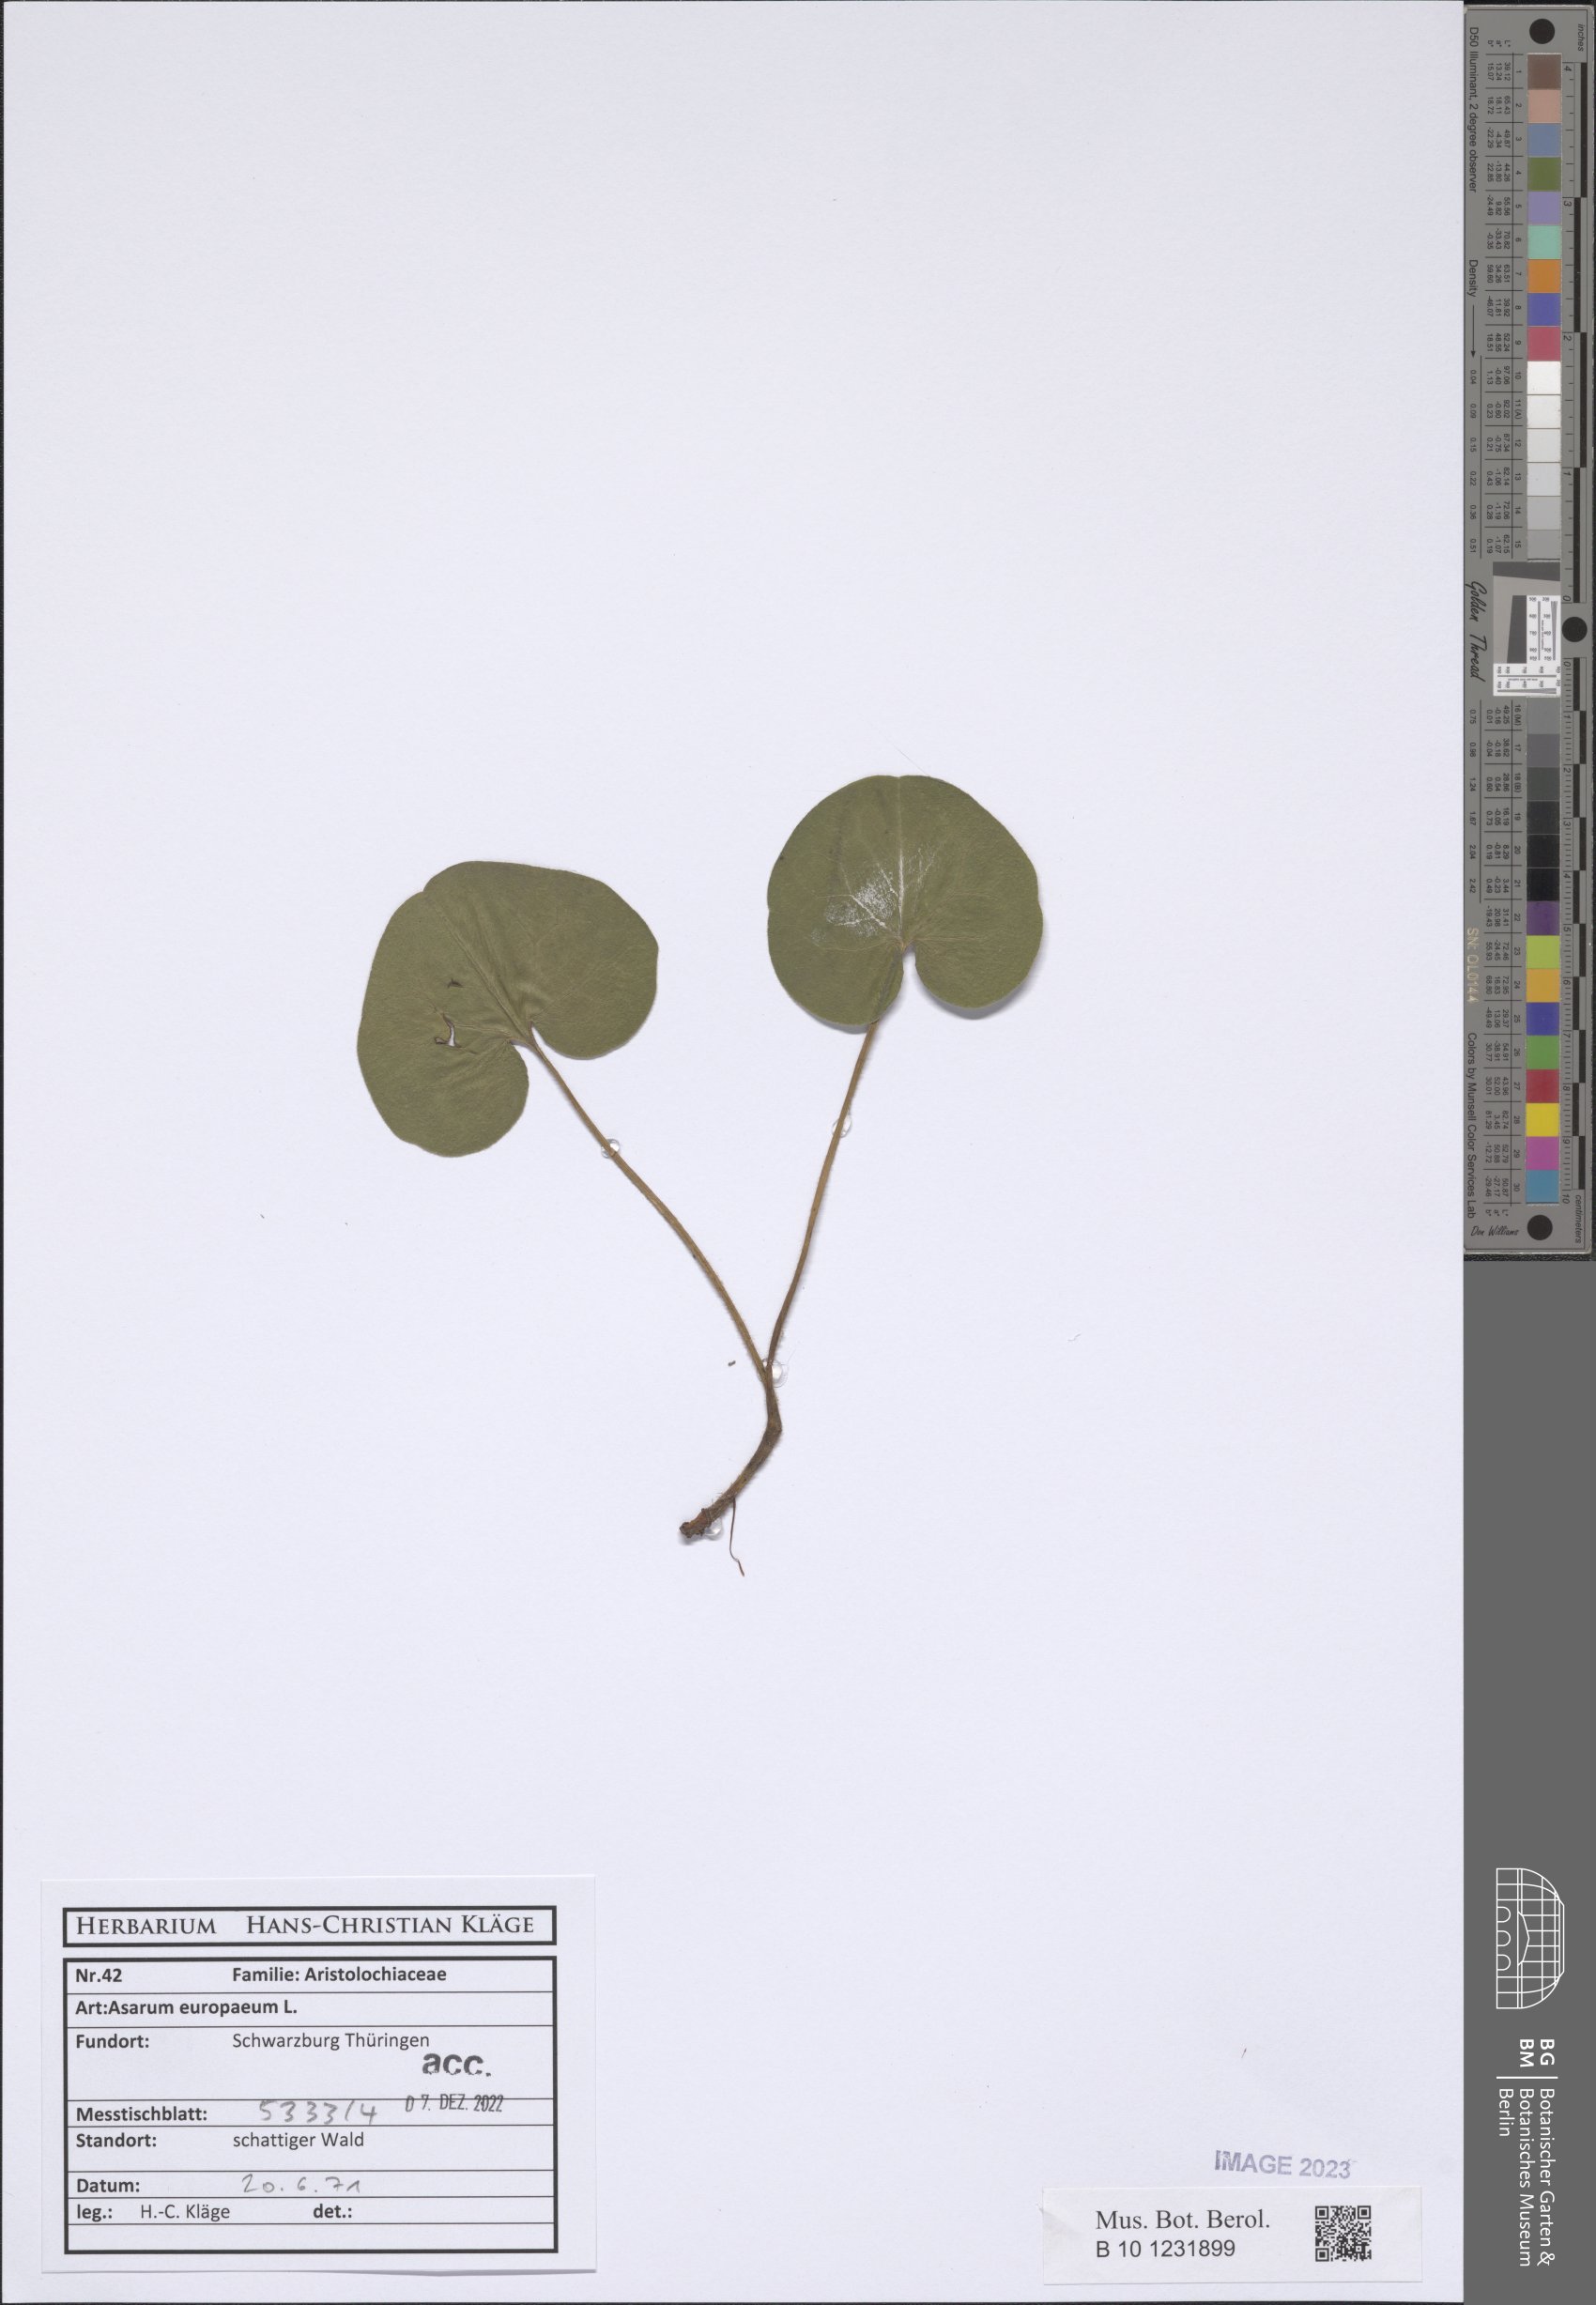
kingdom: Plantae
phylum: Tracheophyta
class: Magnoliopsida
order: Piperales
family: Aristolochiaceae
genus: Asarum
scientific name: Asarum europaeum
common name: Asarabacca
